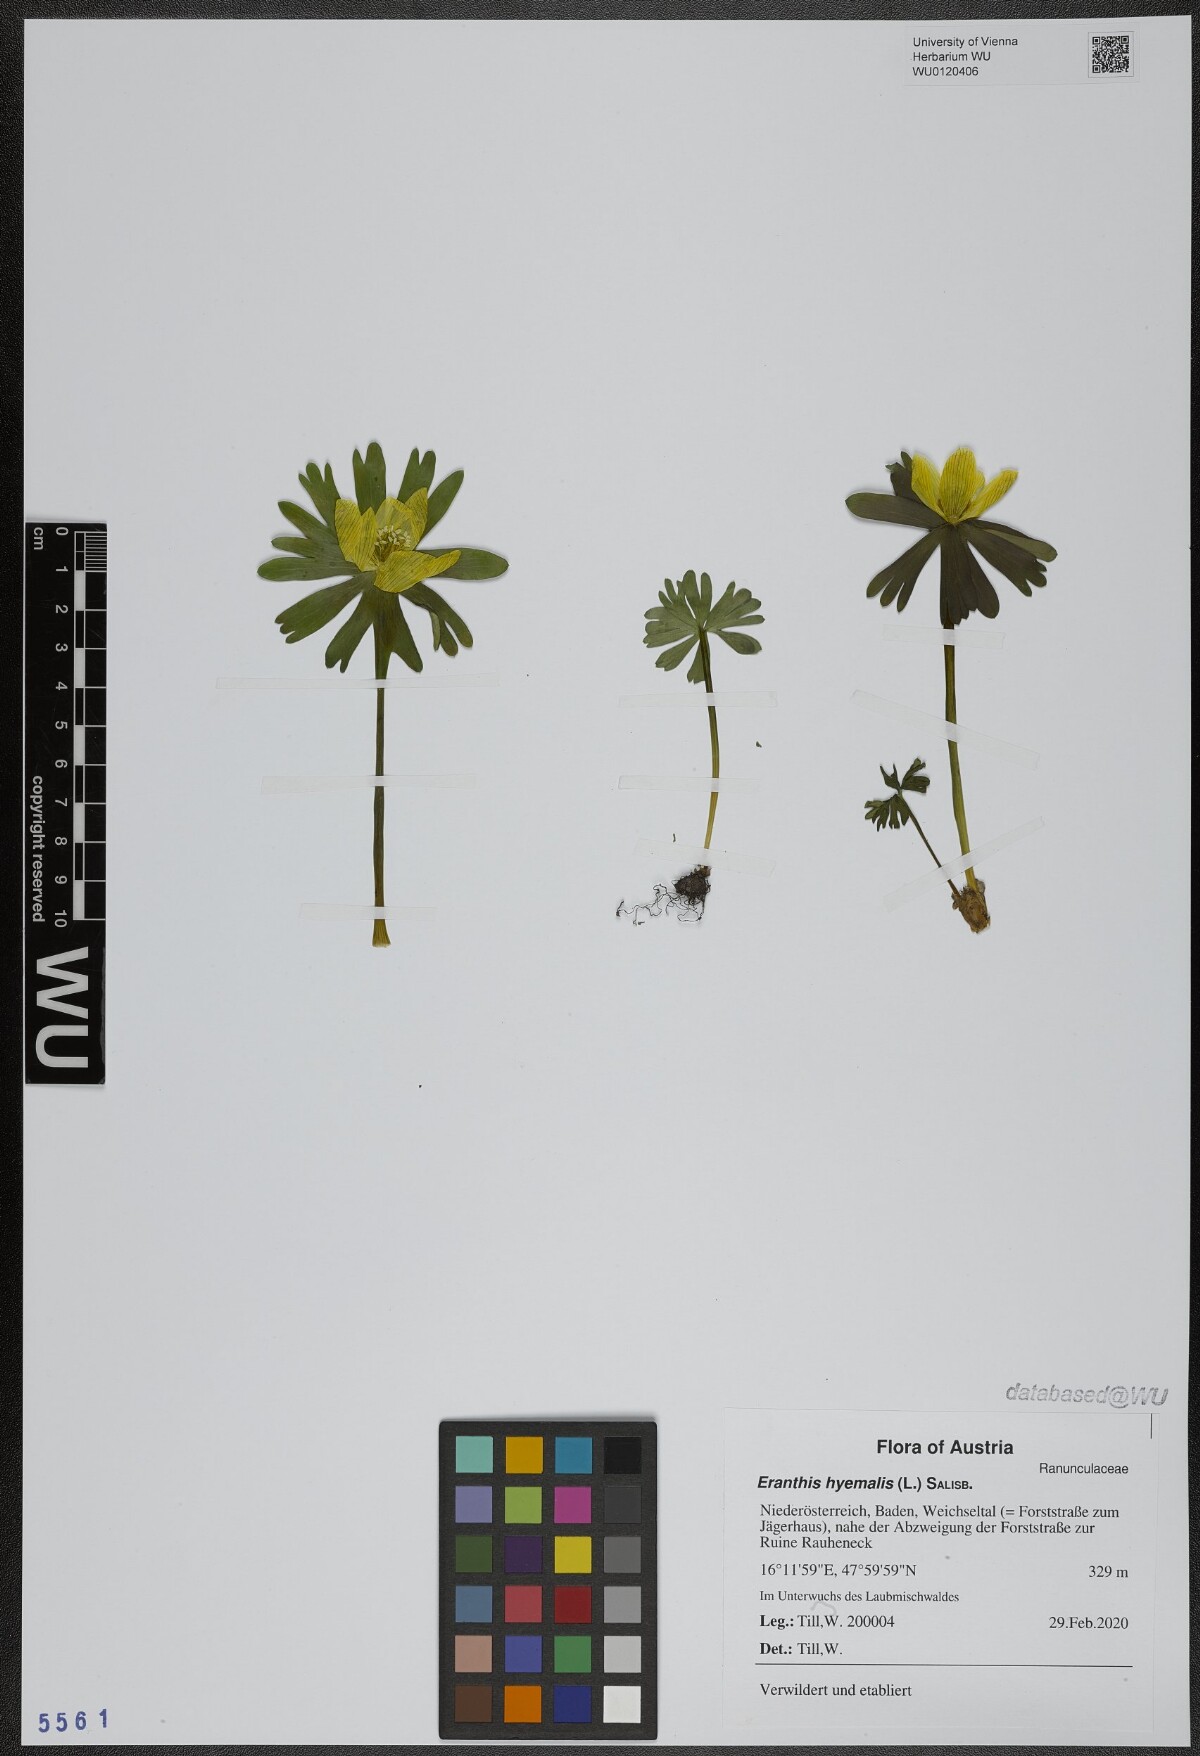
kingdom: Plantae
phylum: Tracheophyta
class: Magnoliopsida
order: Ranunculales
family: Ranunculaceae
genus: Eranthis
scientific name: Eranthis hyemalis
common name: Winter aconite
